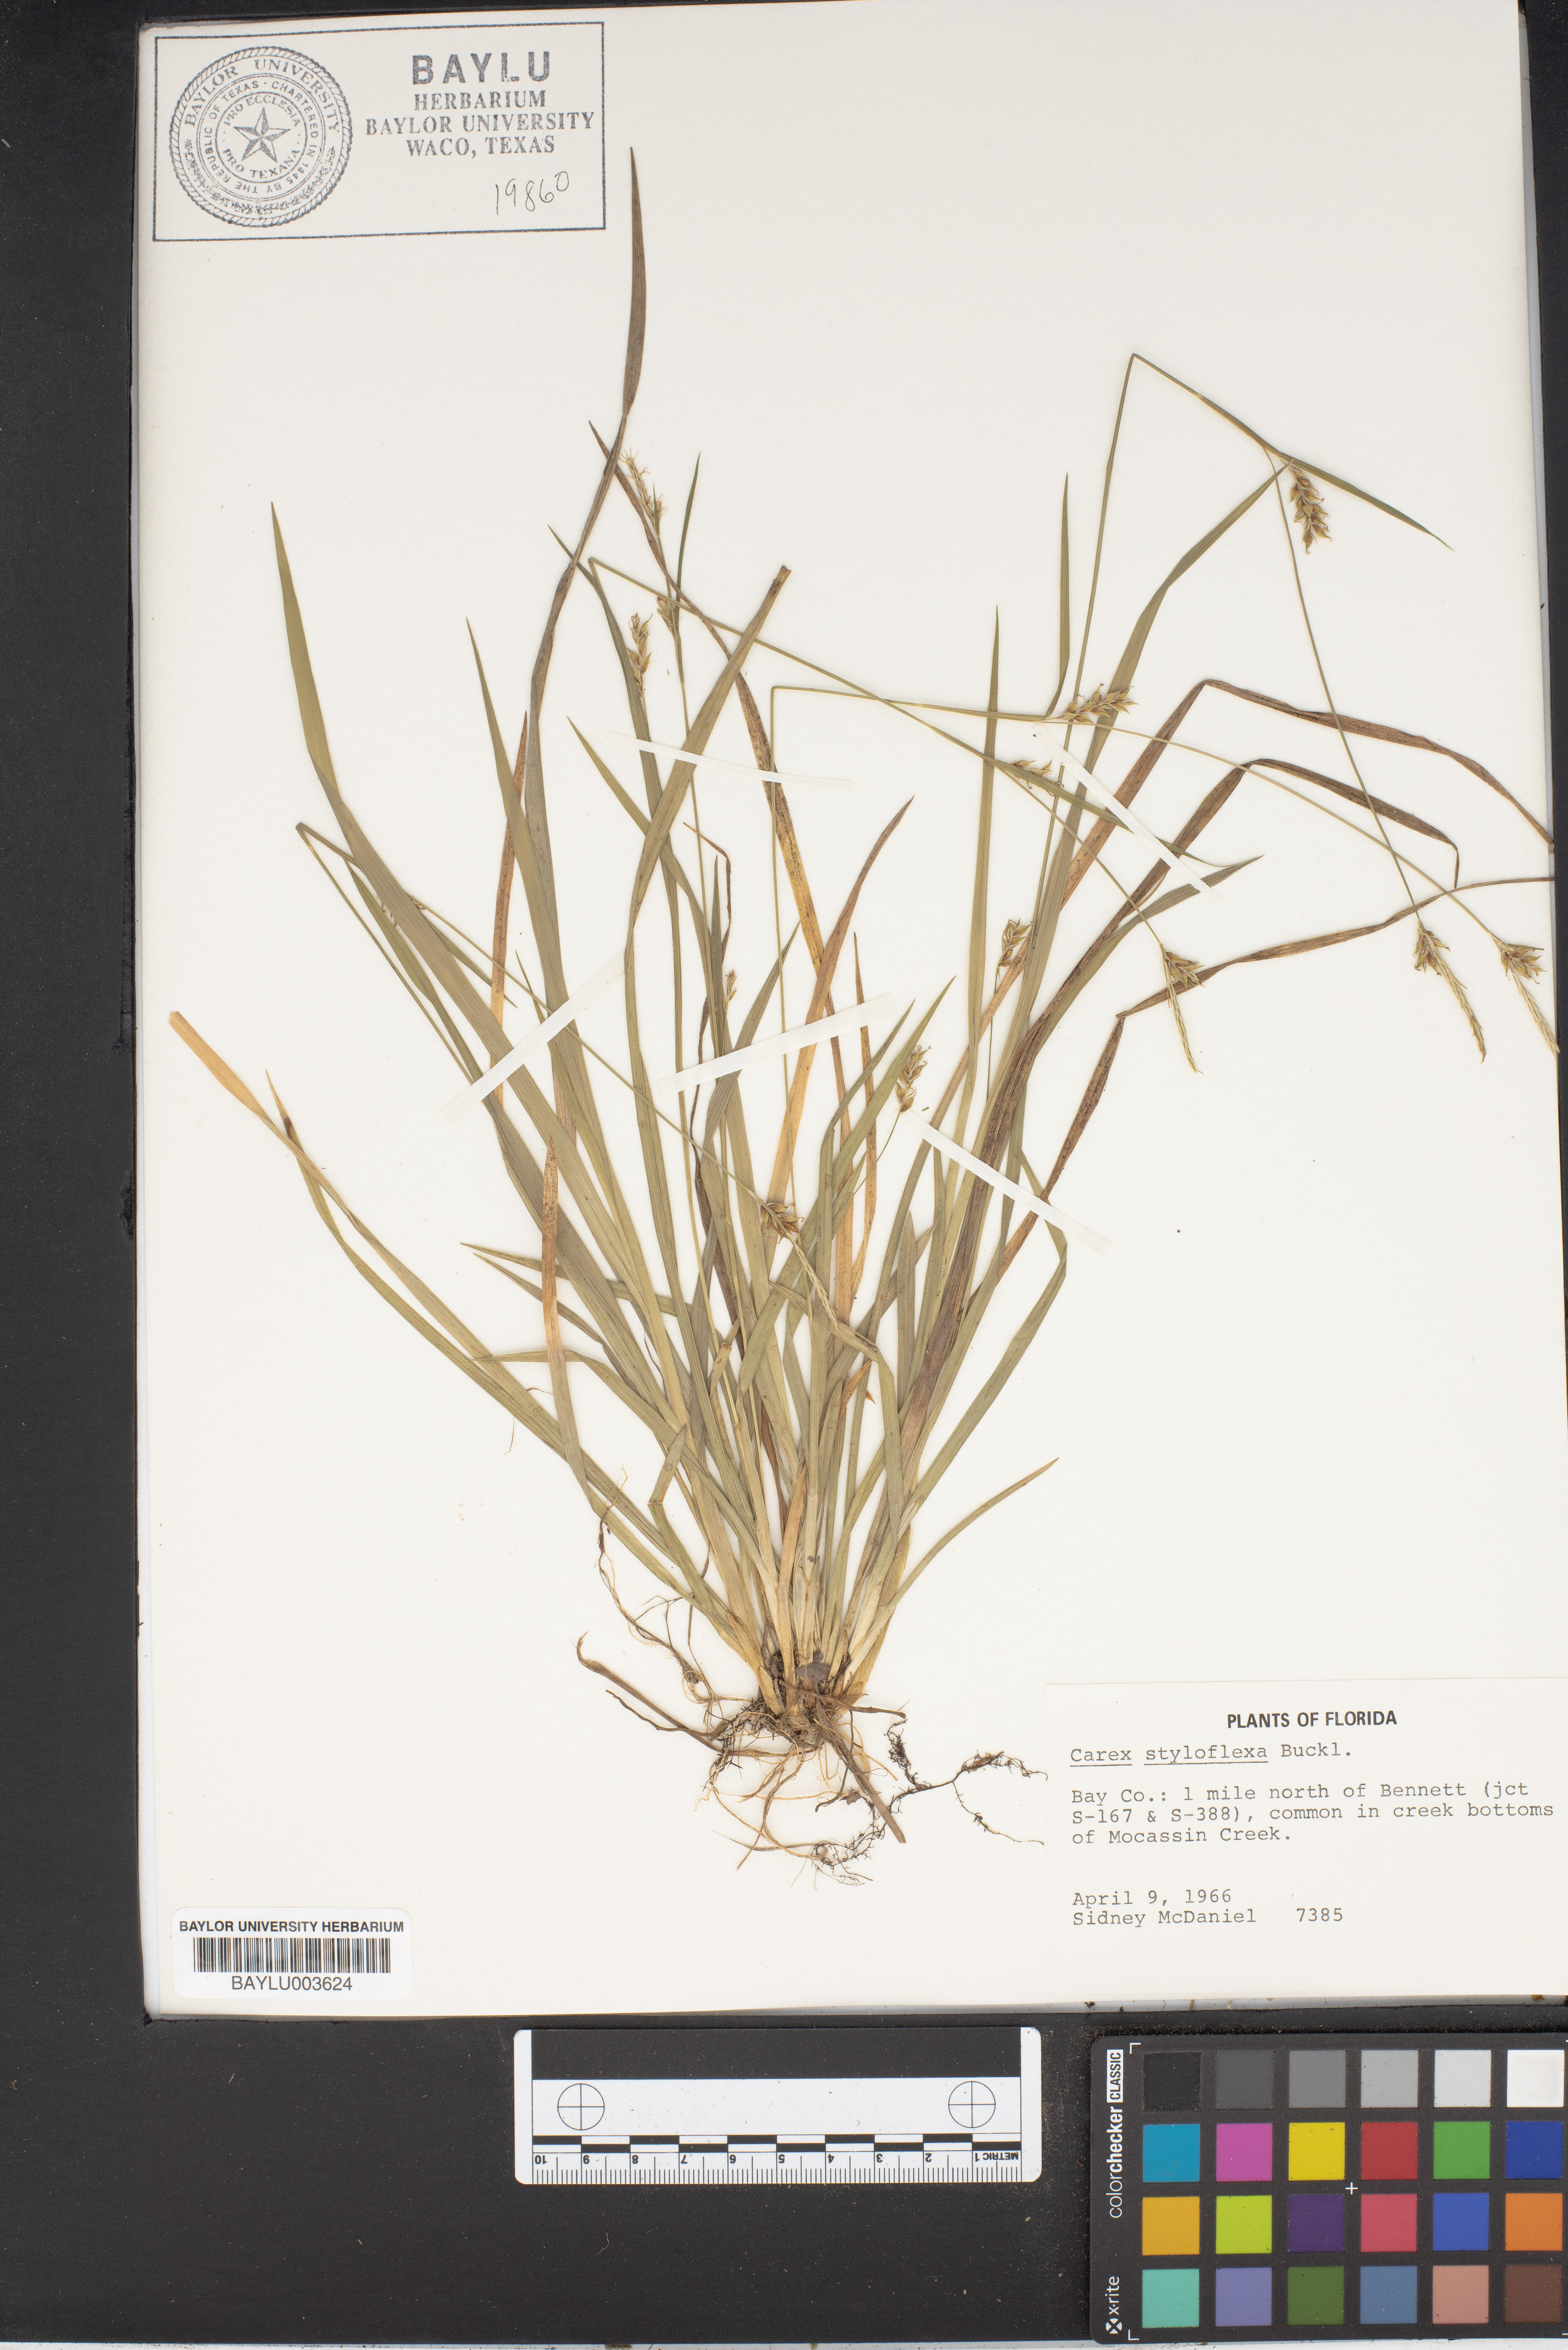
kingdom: Plantae
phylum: Tracheophyta
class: Liliopsida
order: Poales
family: Cyperaceae
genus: Carex
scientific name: Carex styloflexa
